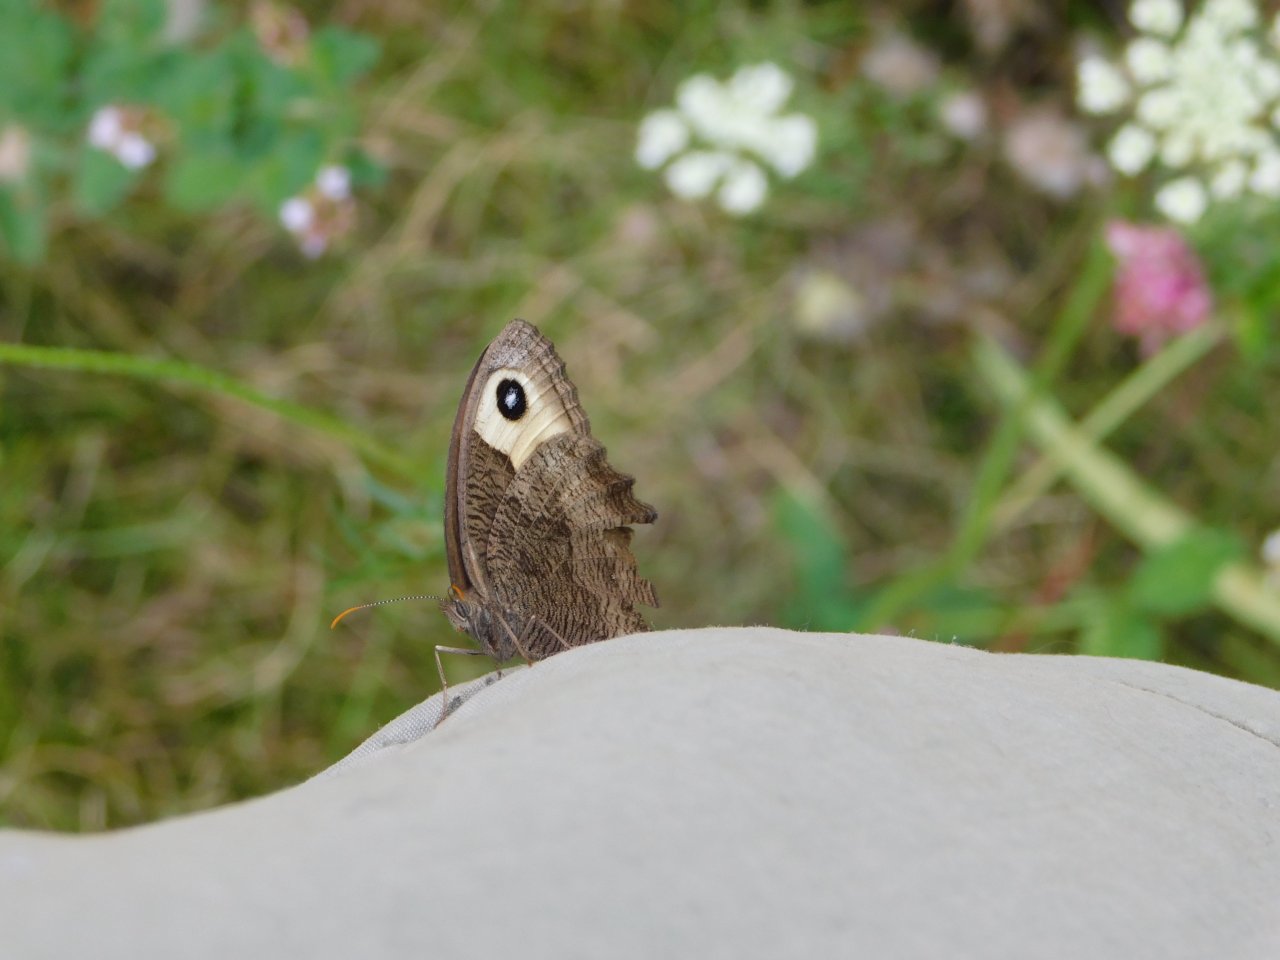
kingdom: Animalia
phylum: Arthropoda
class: Insecta
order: Lepidoptera
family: Nymphalidae
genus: Cercyonis
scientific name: Cercyonis pegala
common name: Common Wood-Nymph
